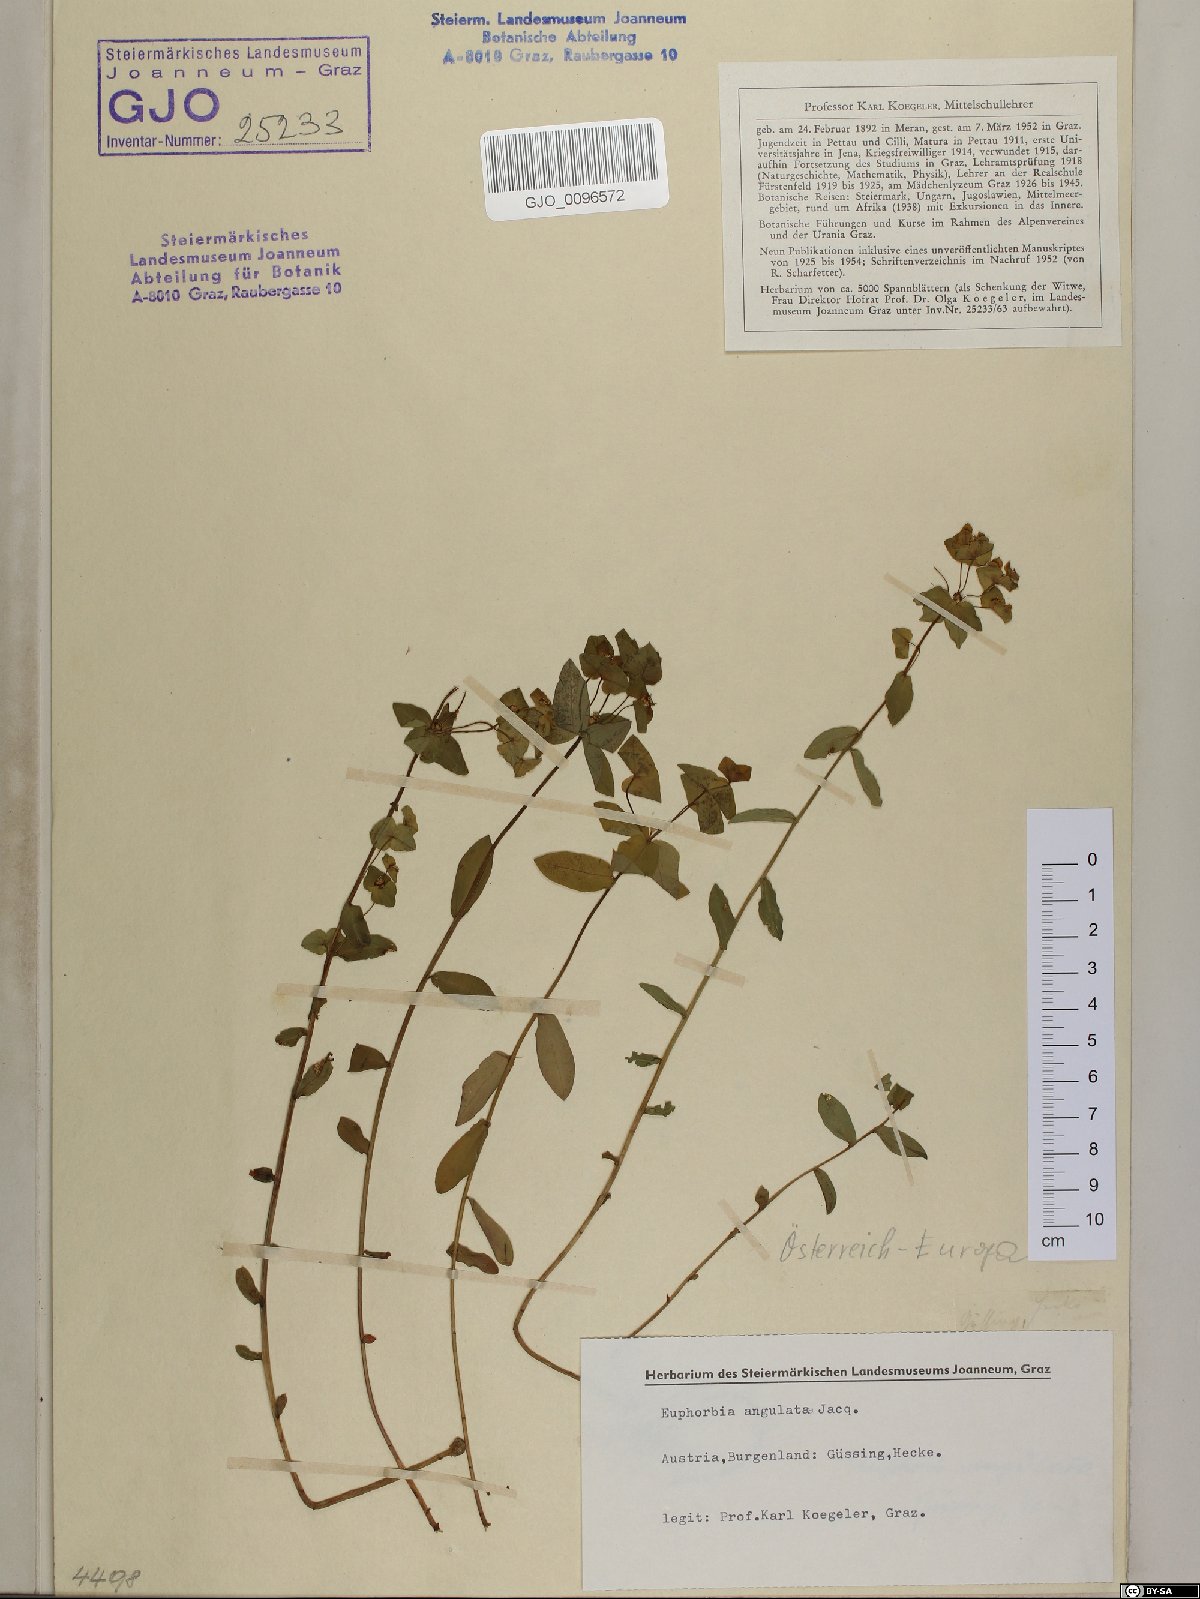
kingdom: Plantae
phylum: Tracheophyta
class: Magnoliopsida
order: Malpighiales
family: Euphorbiaceae
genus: Euphorbia
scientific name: Euphorbia angulata
